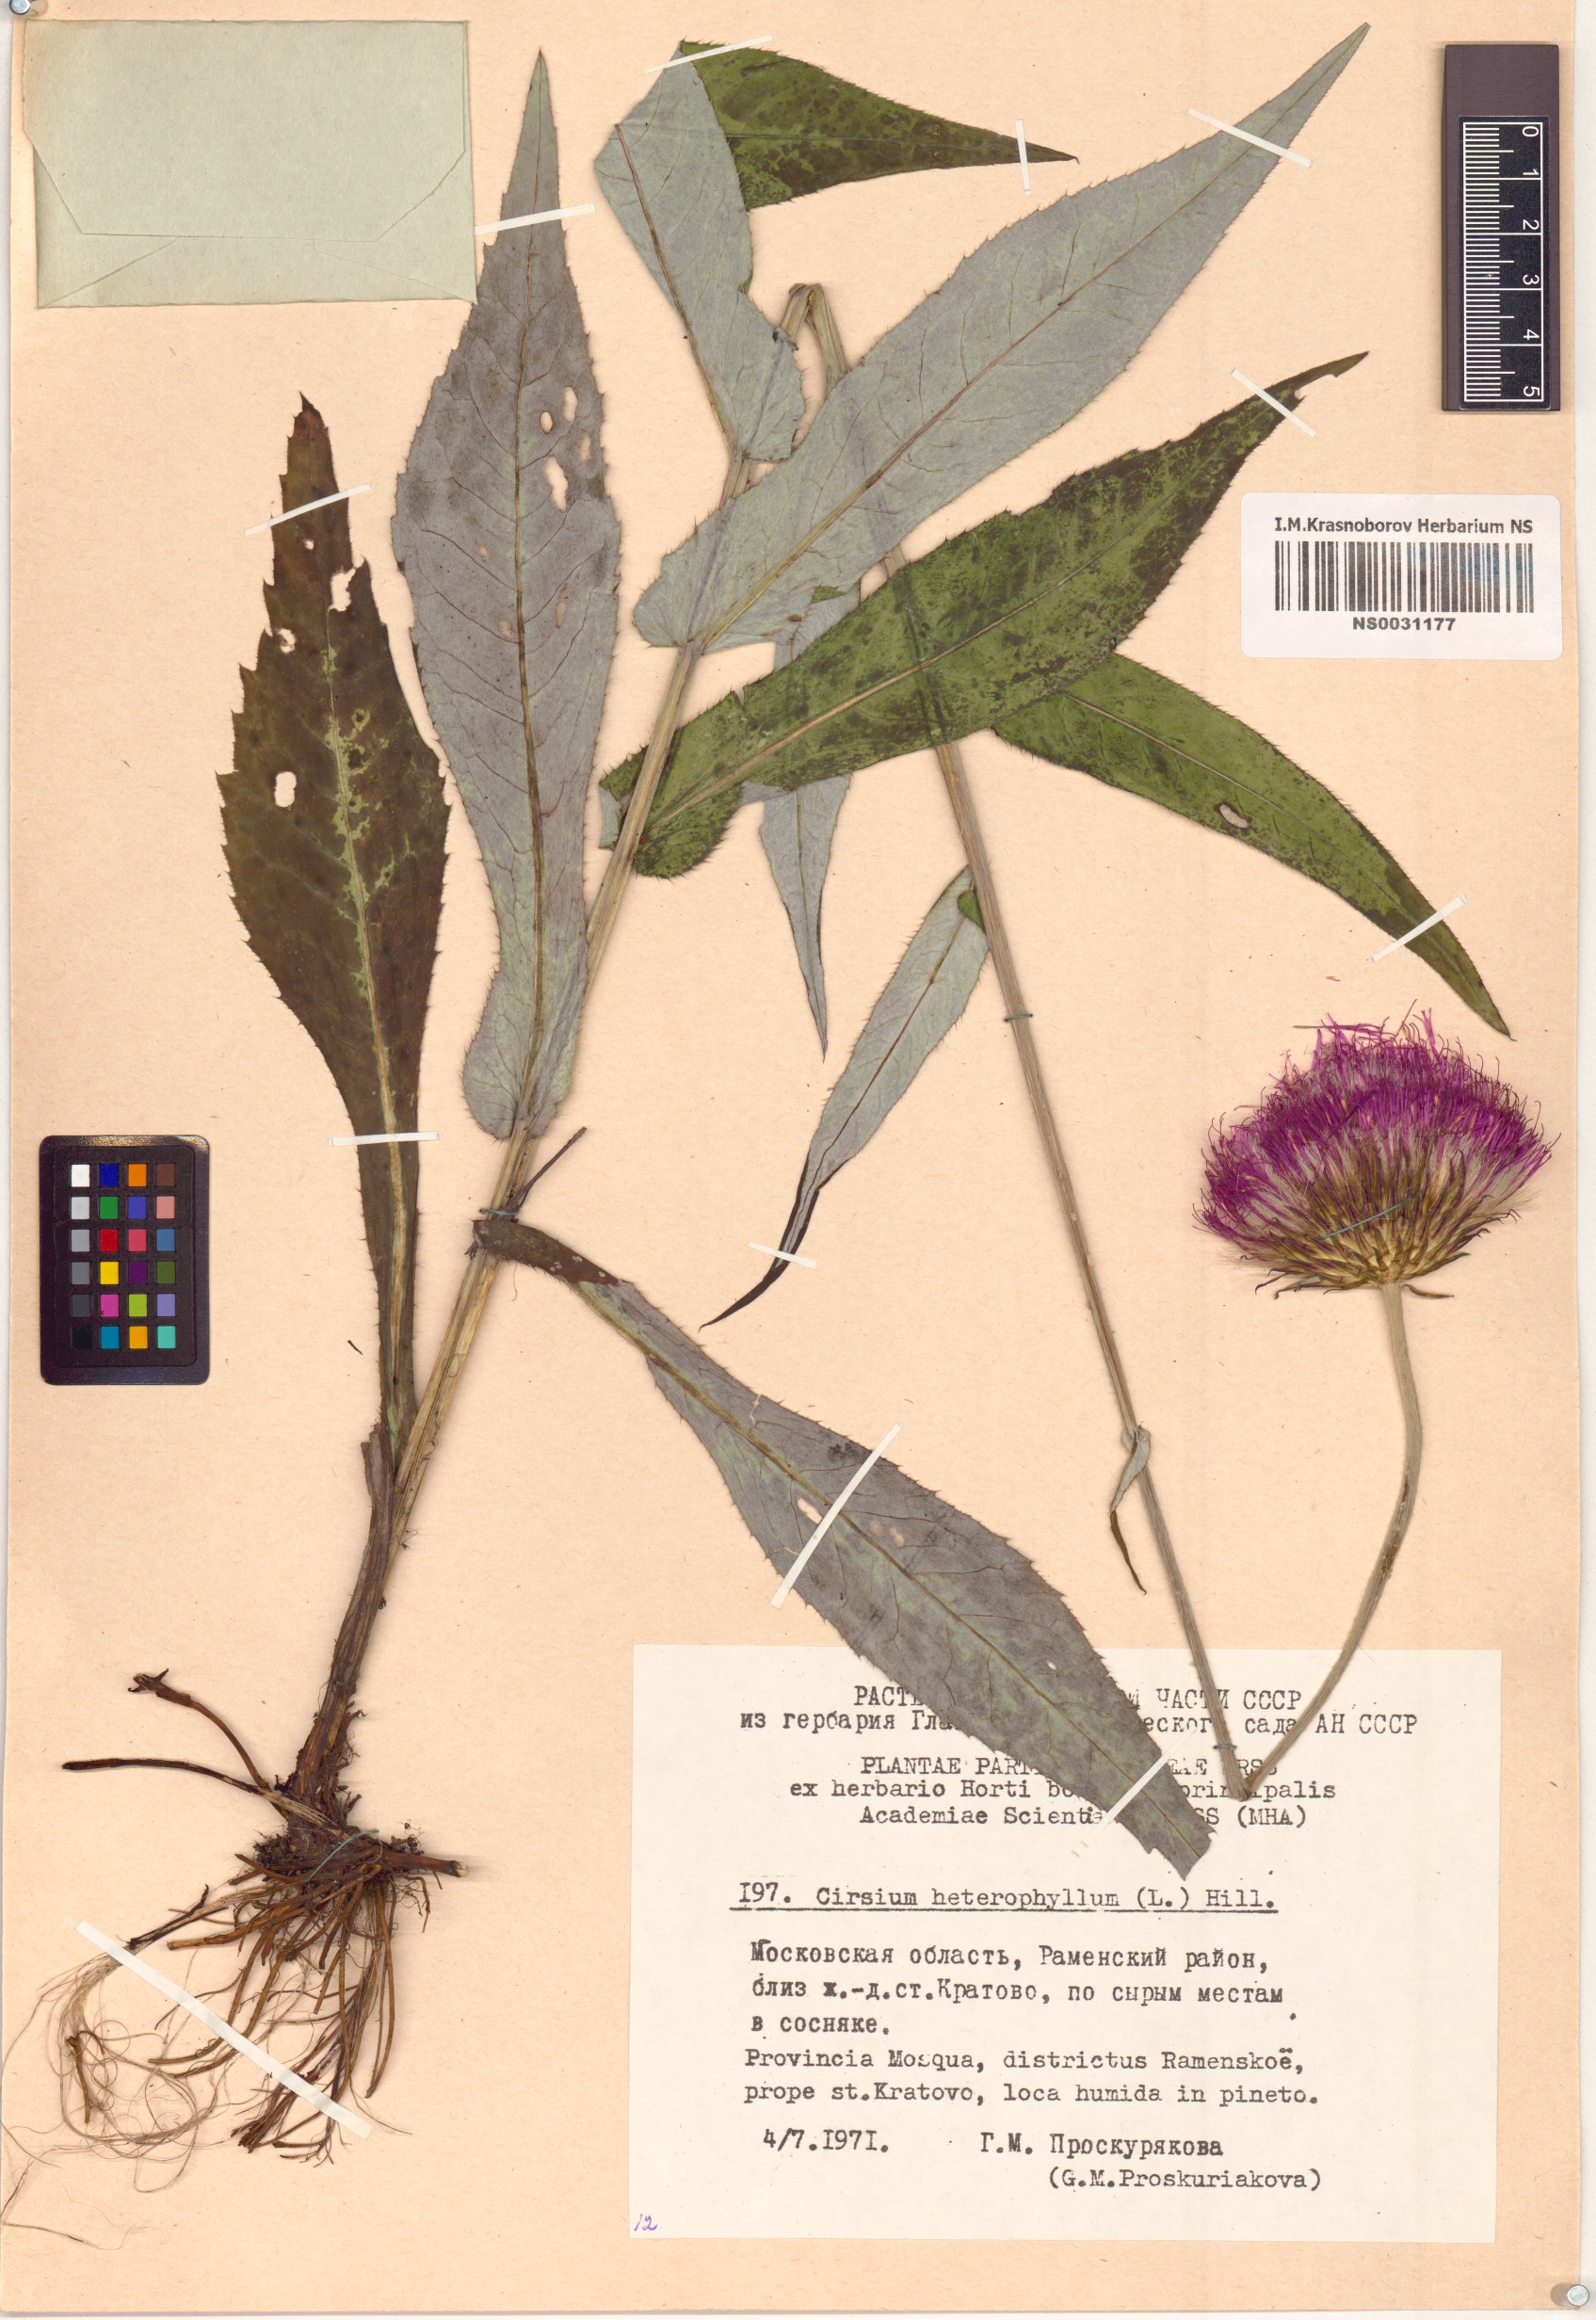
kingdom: Plantae
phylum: Tracheophyta
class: Magnoliopsida
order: Asterales
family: Asteraceae
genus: Cirsium
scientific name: Cirsium heterophyllum
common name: Melancholy thistle
